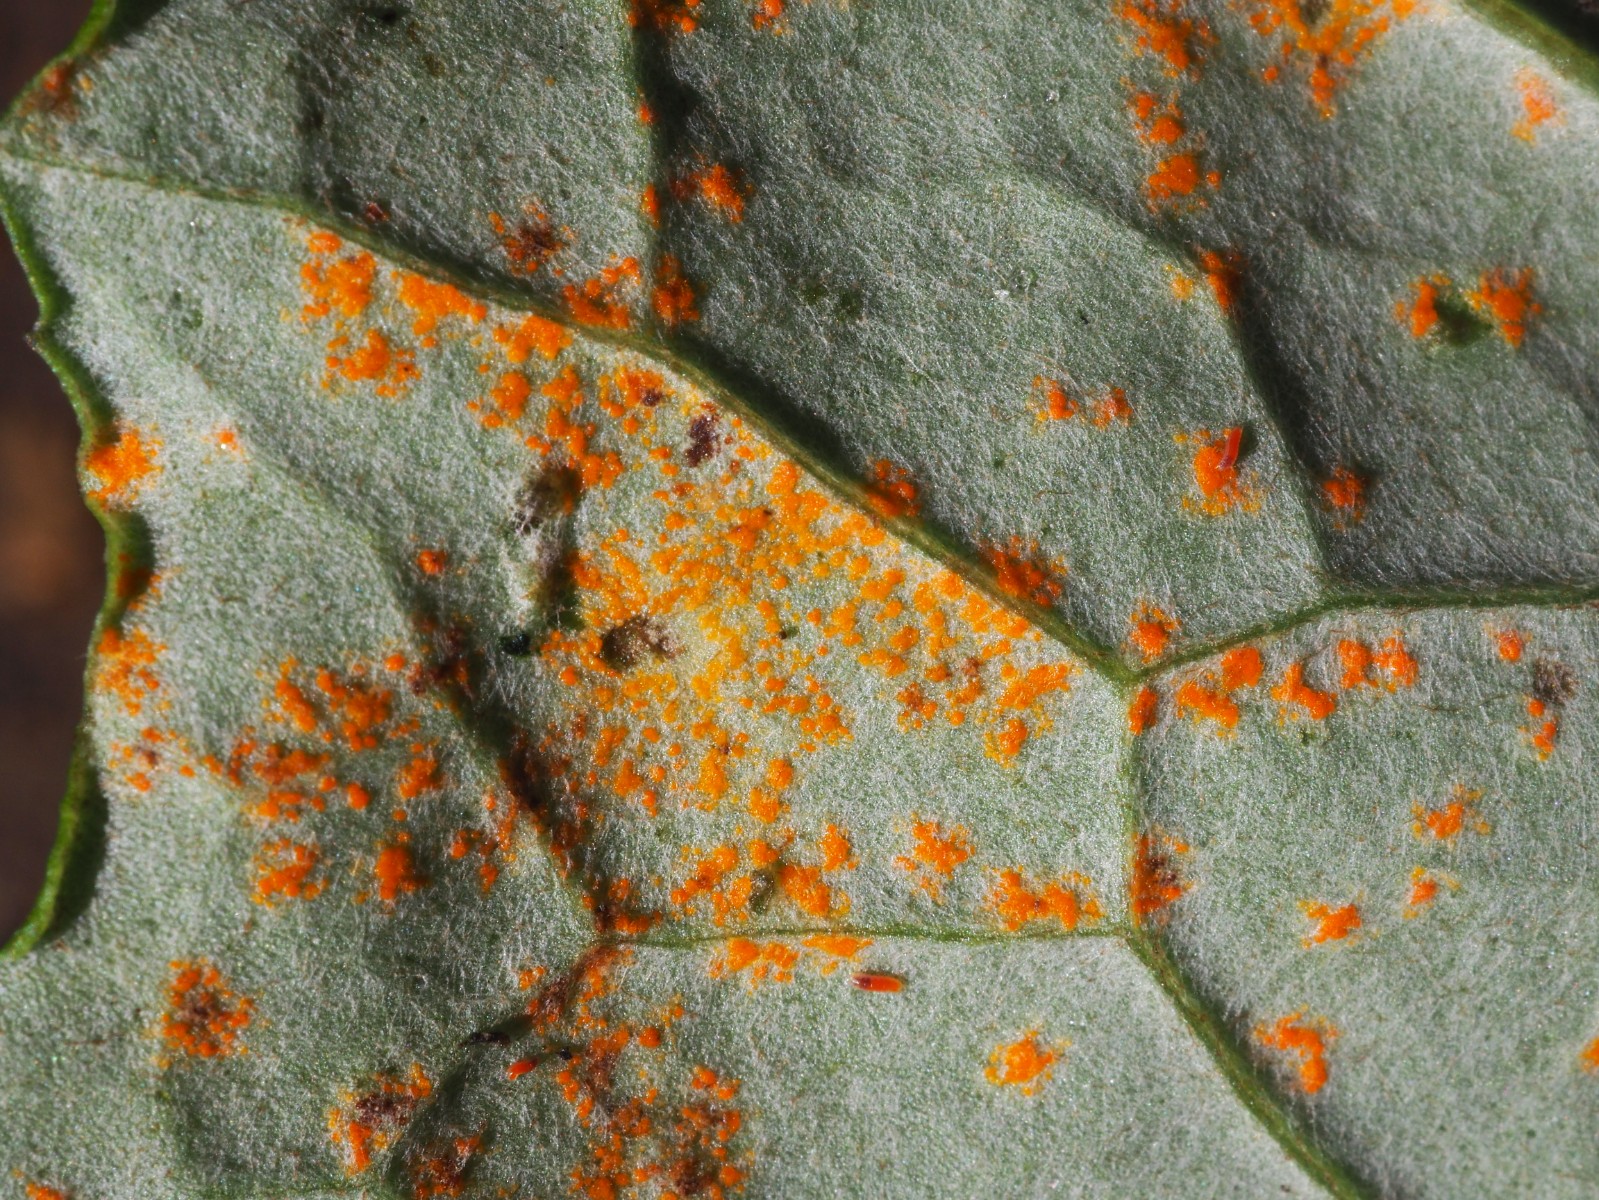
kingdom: Fungi
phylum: Basidiomycota
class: Pucciniomycetes
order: Pucciniales
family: Coleosporiaceae
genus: Coleosporium
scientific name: Coleosporium tussilaginis
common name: almindelig fyrrenålerust
